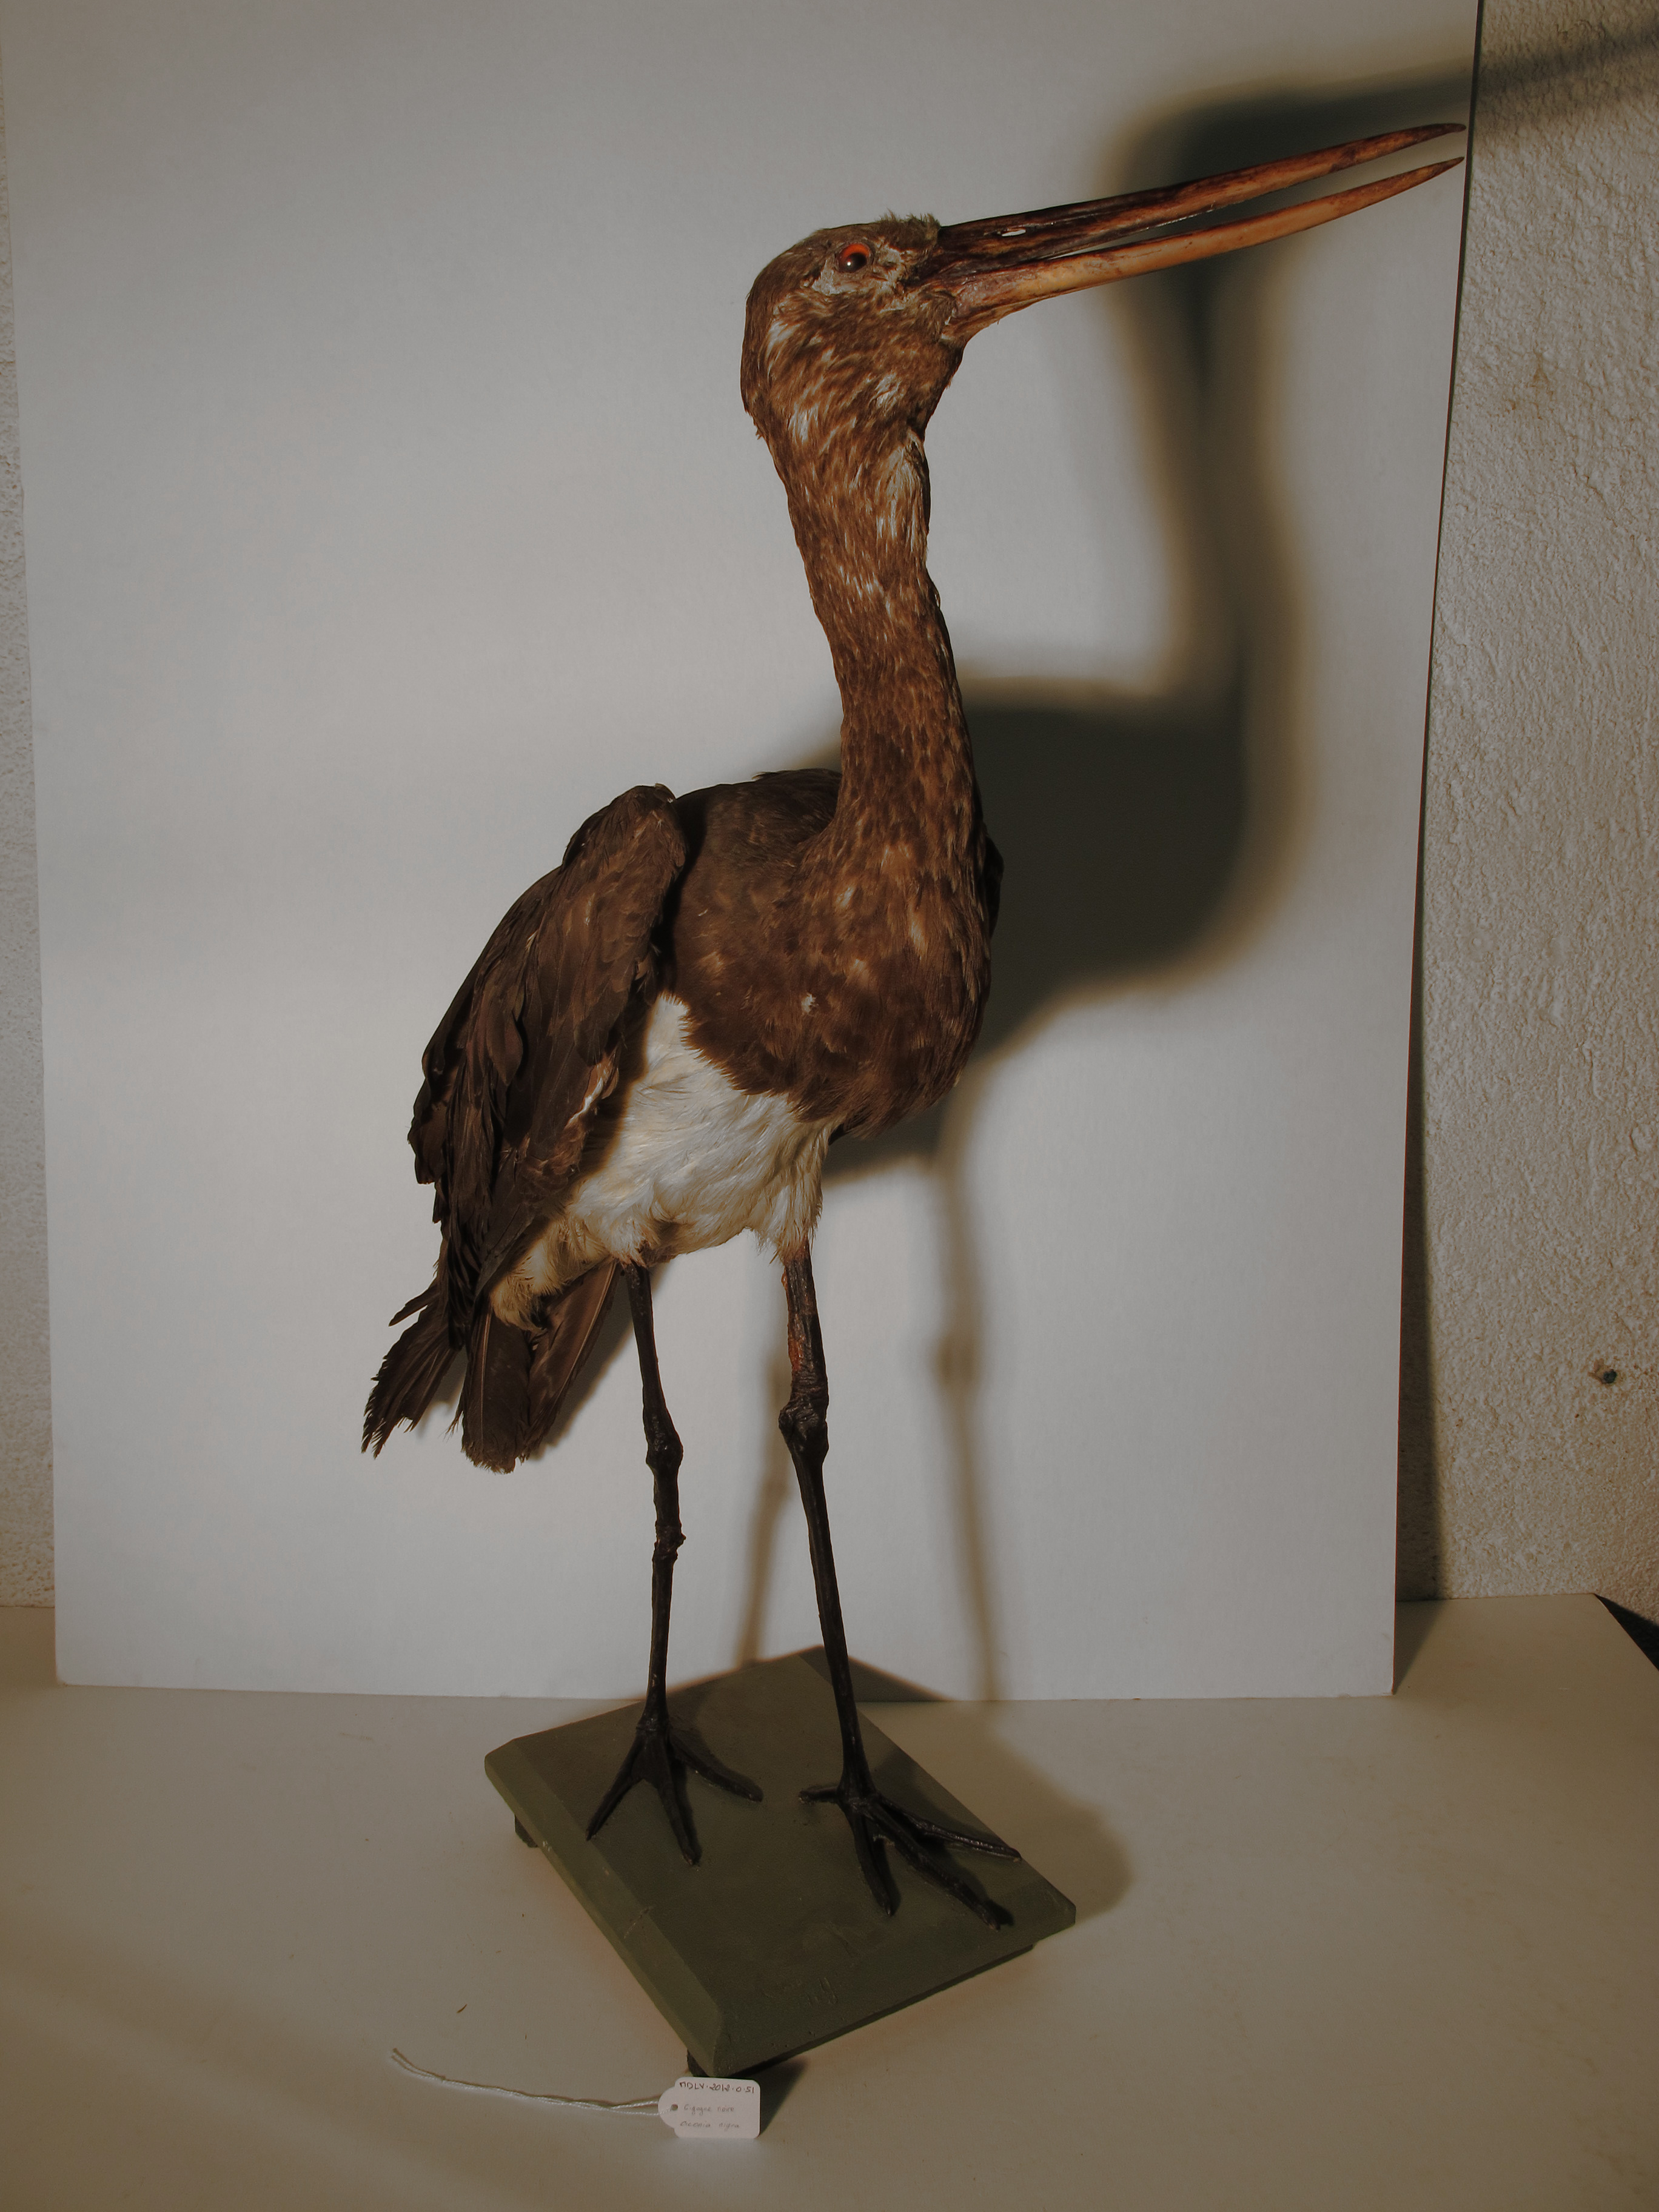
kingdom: Animalia
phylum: Chordata
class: Aves
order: Ciconiiformes
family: Ciconiidae
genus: Ciconia
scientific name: Ciconia nigra
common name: Black Stork
